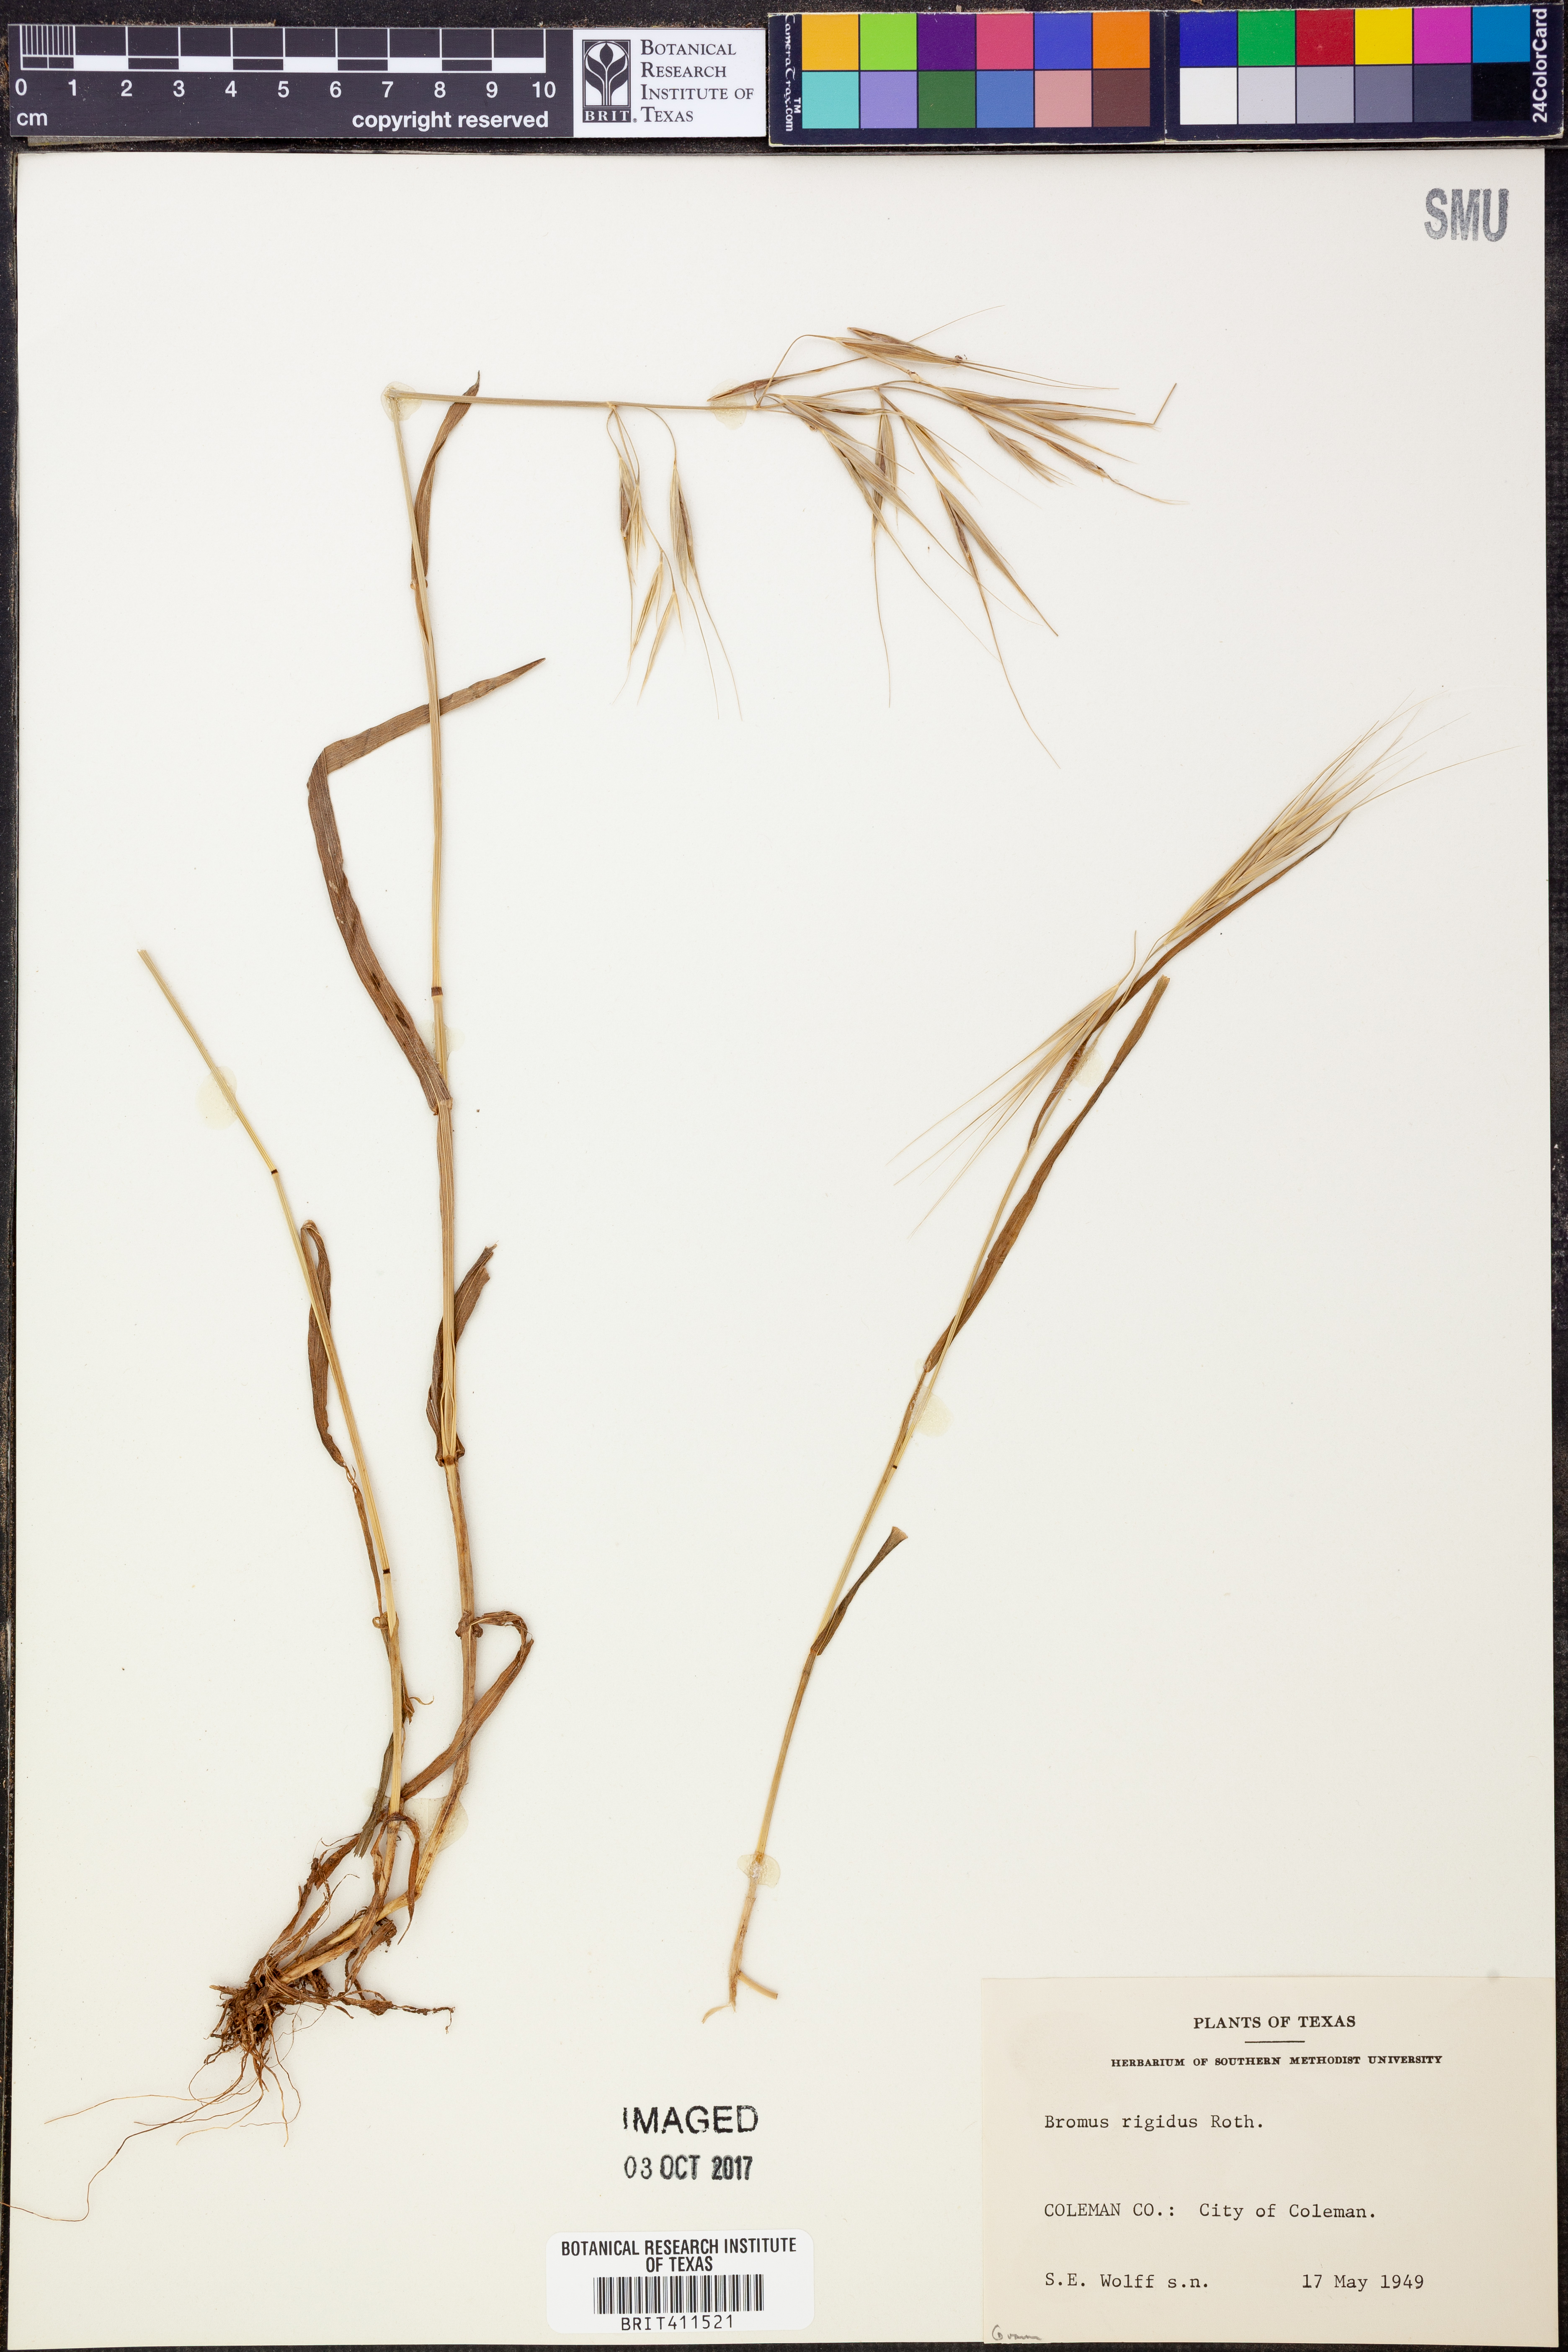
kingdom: Plantae
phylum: Tracheophyta
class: Liliopsida
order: Poales
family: Poaceae
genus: Bromus
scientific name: Bromus rigidus
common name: Ripgut brome
